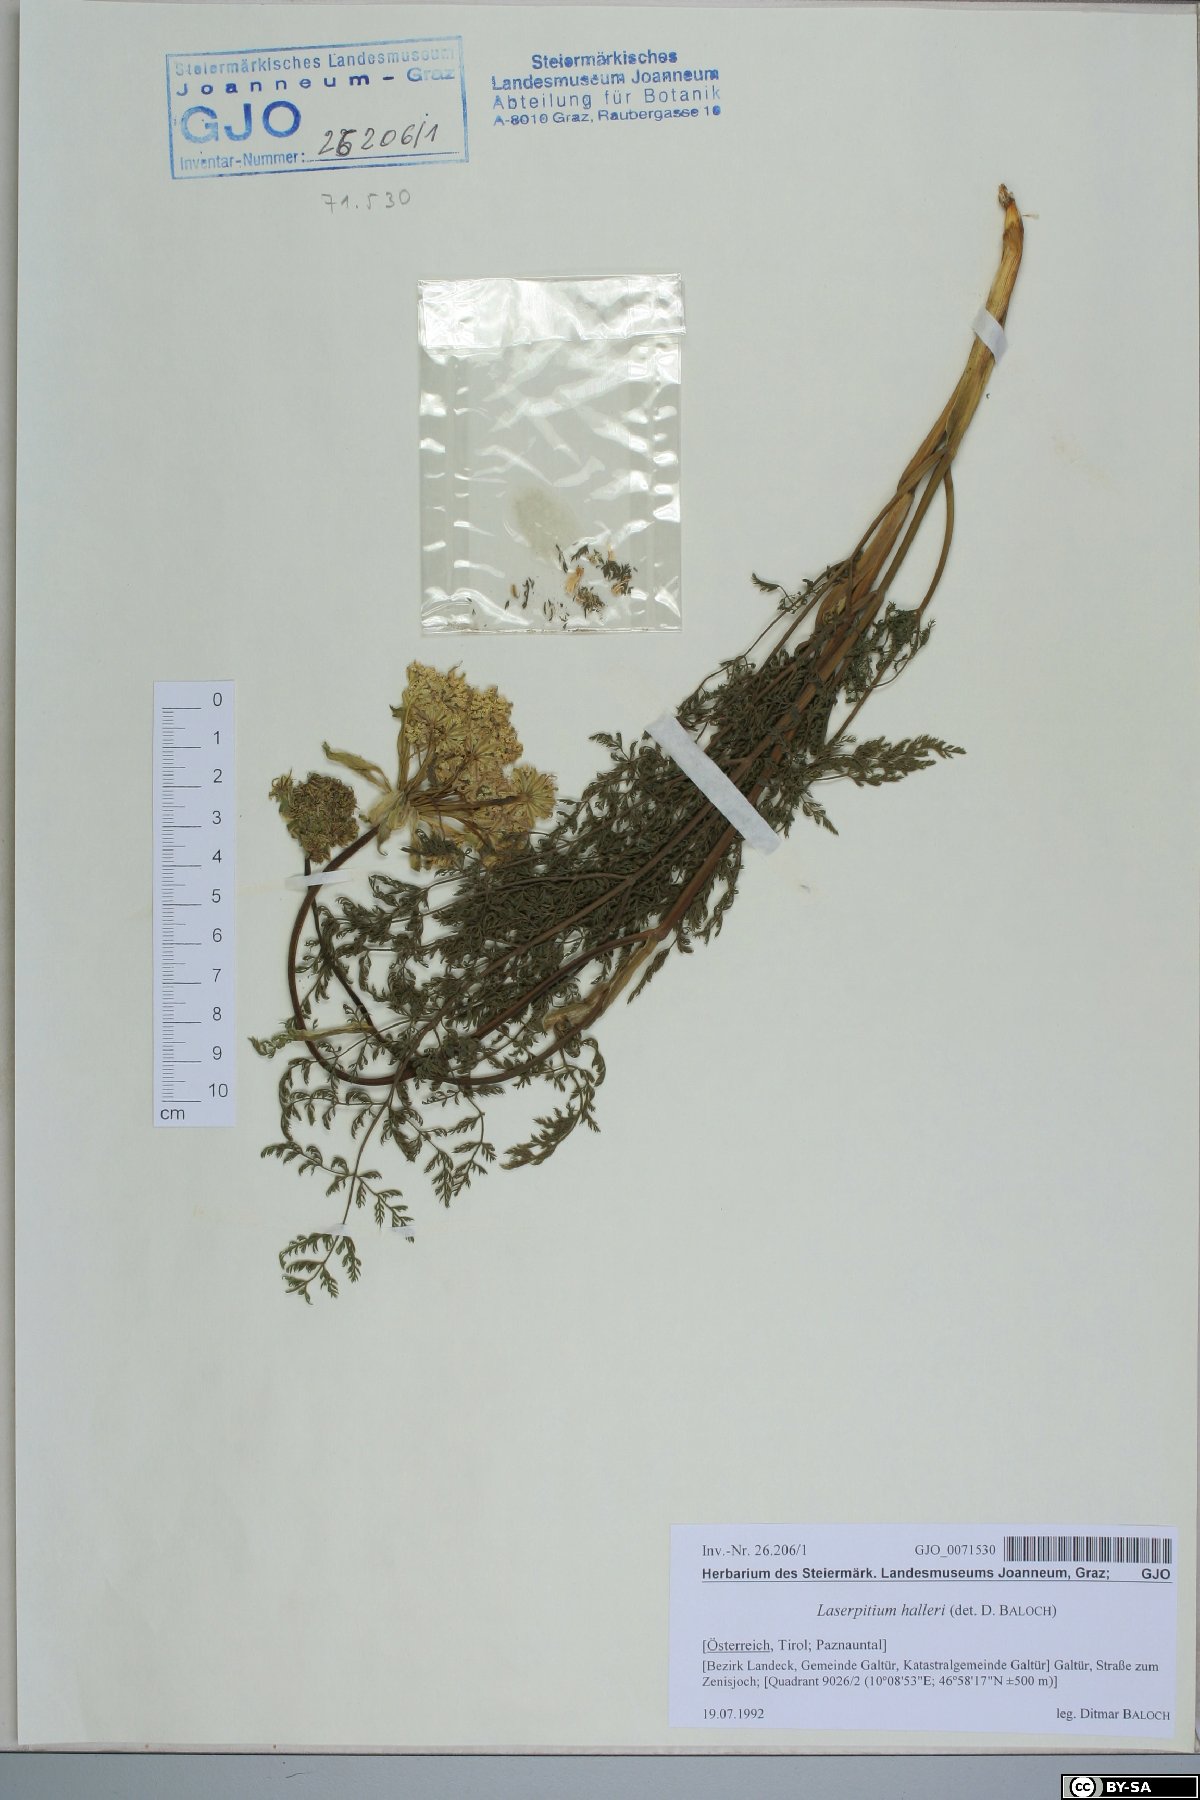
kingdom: Plantae
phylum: Tracheophyta
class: Magnoliopsida
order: Apiales
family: Apiaceae
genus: Laserpitium
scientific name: Laserpitium halleri
